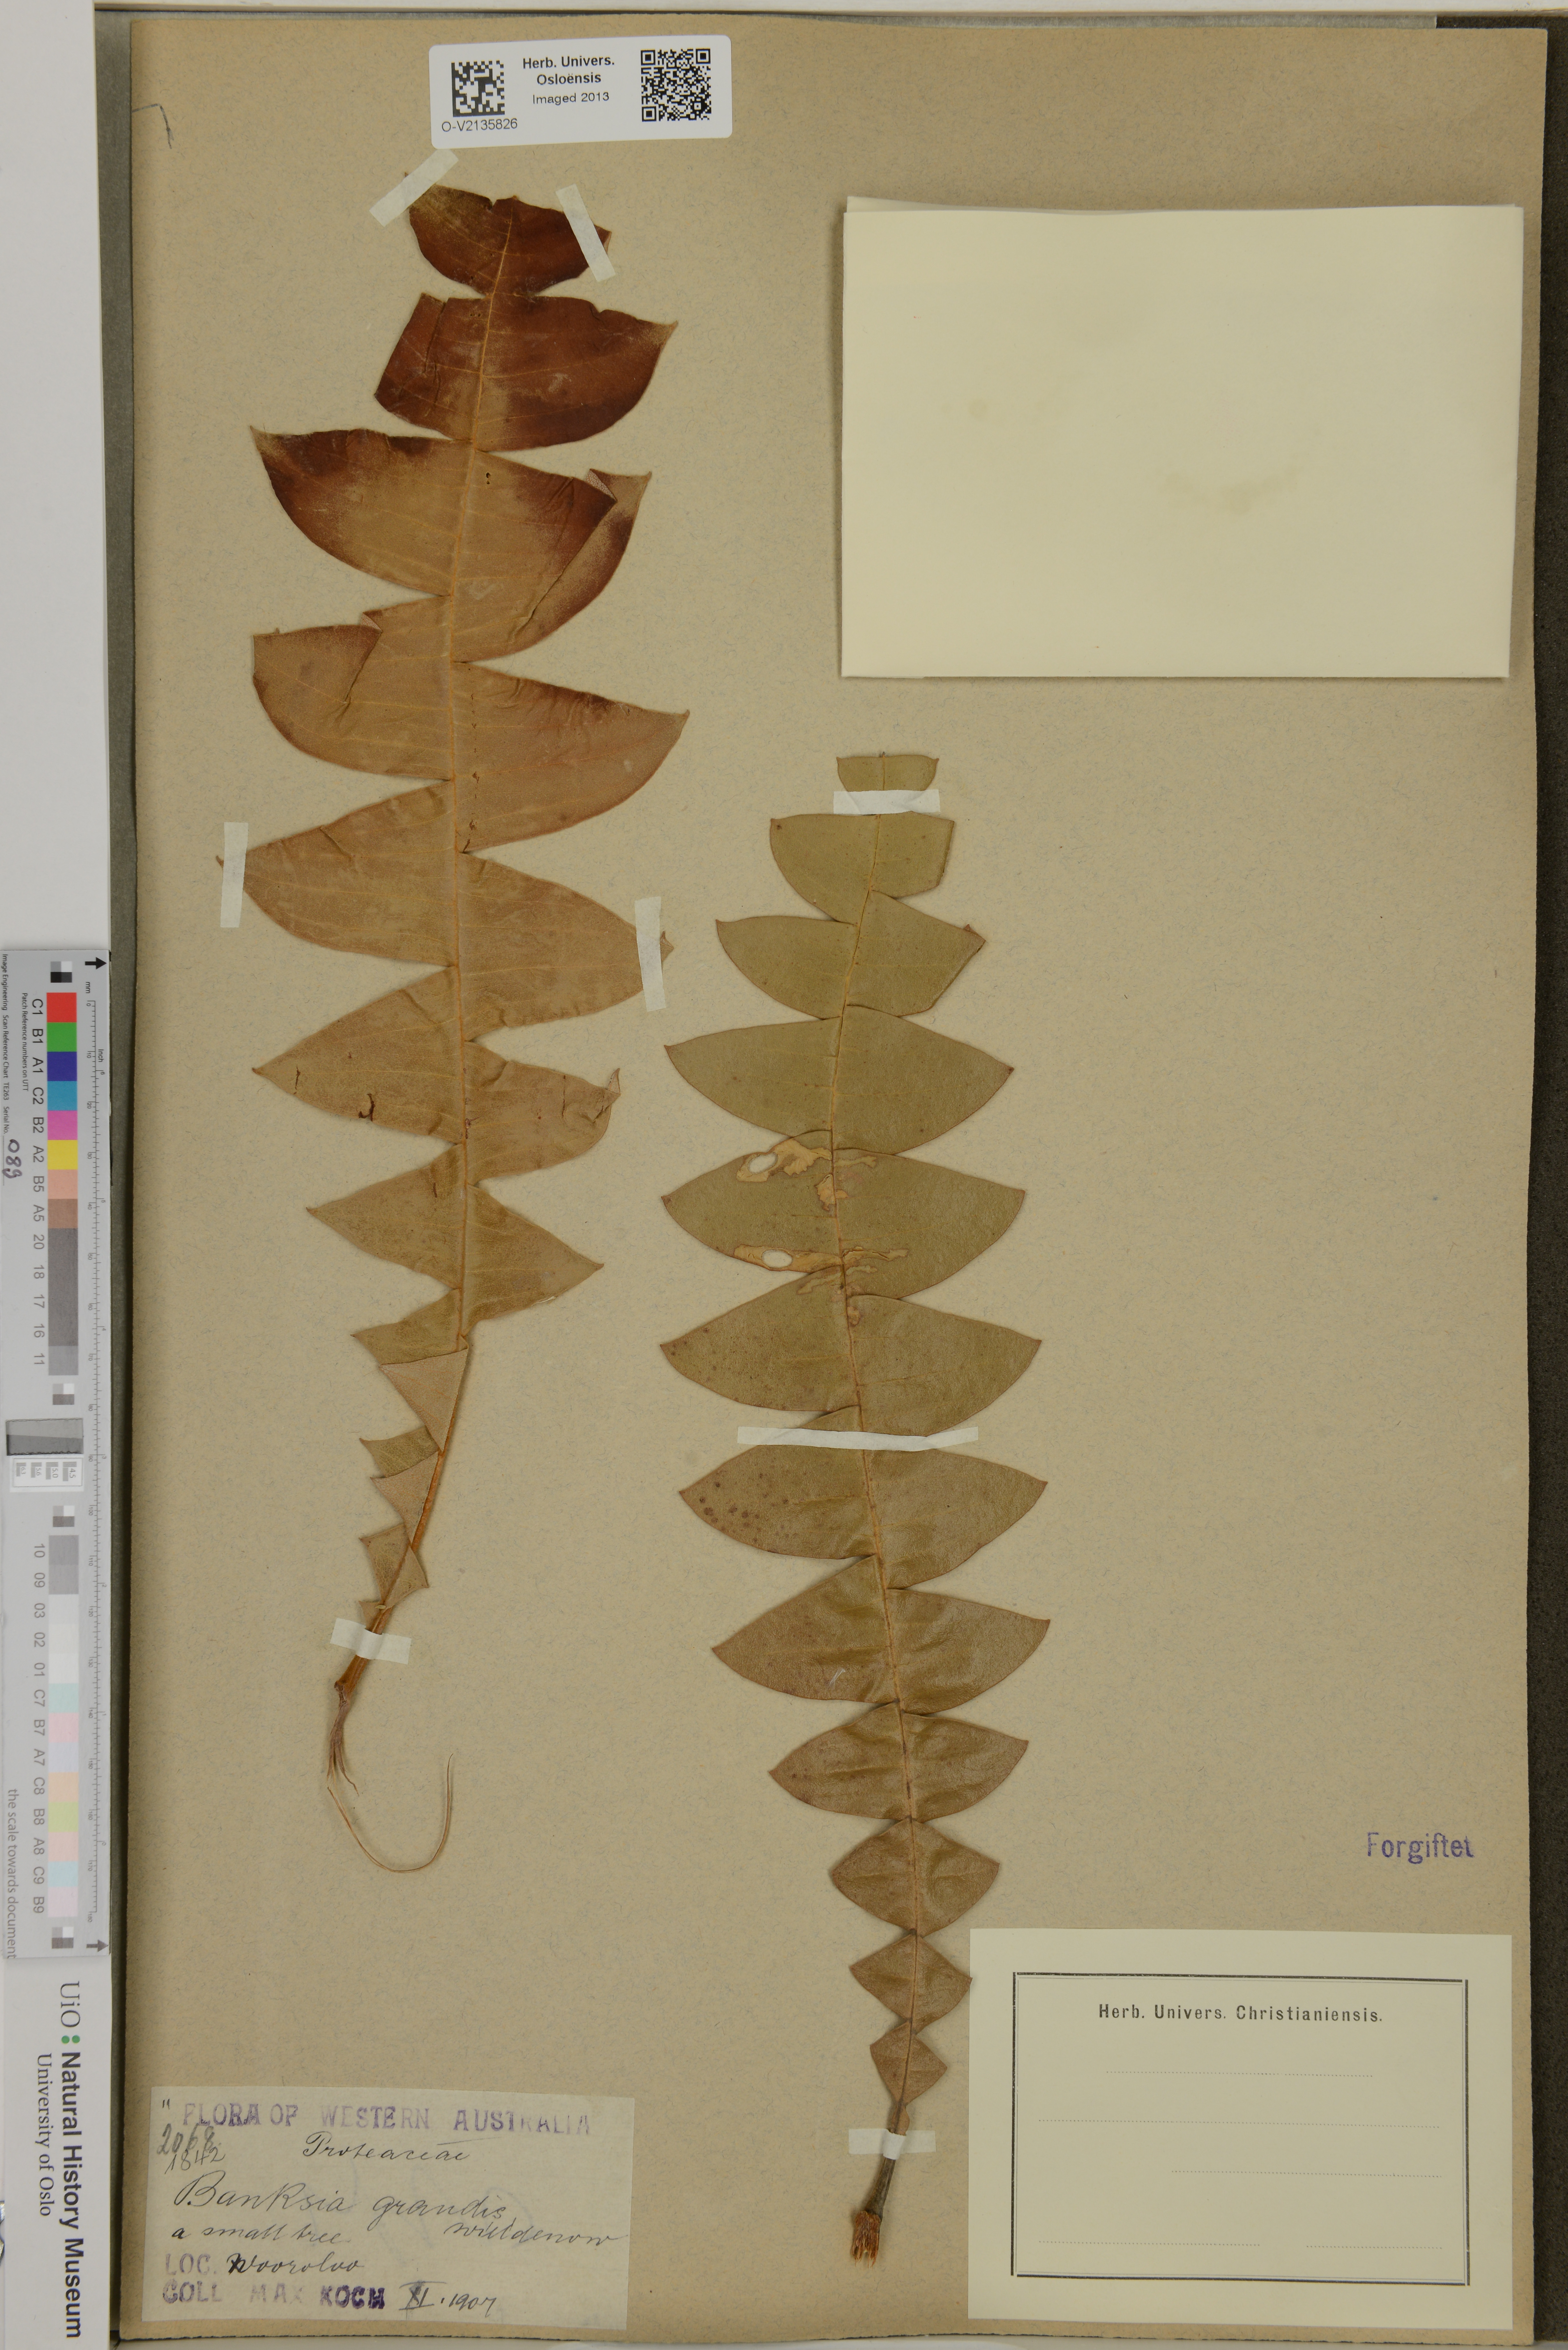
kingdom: Plantae
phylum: Tracheophyta
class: Magnoliopsida
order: Proteales
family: Proteaceae
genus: Banksia
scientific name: Banksia grandis
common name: Giant banksia
